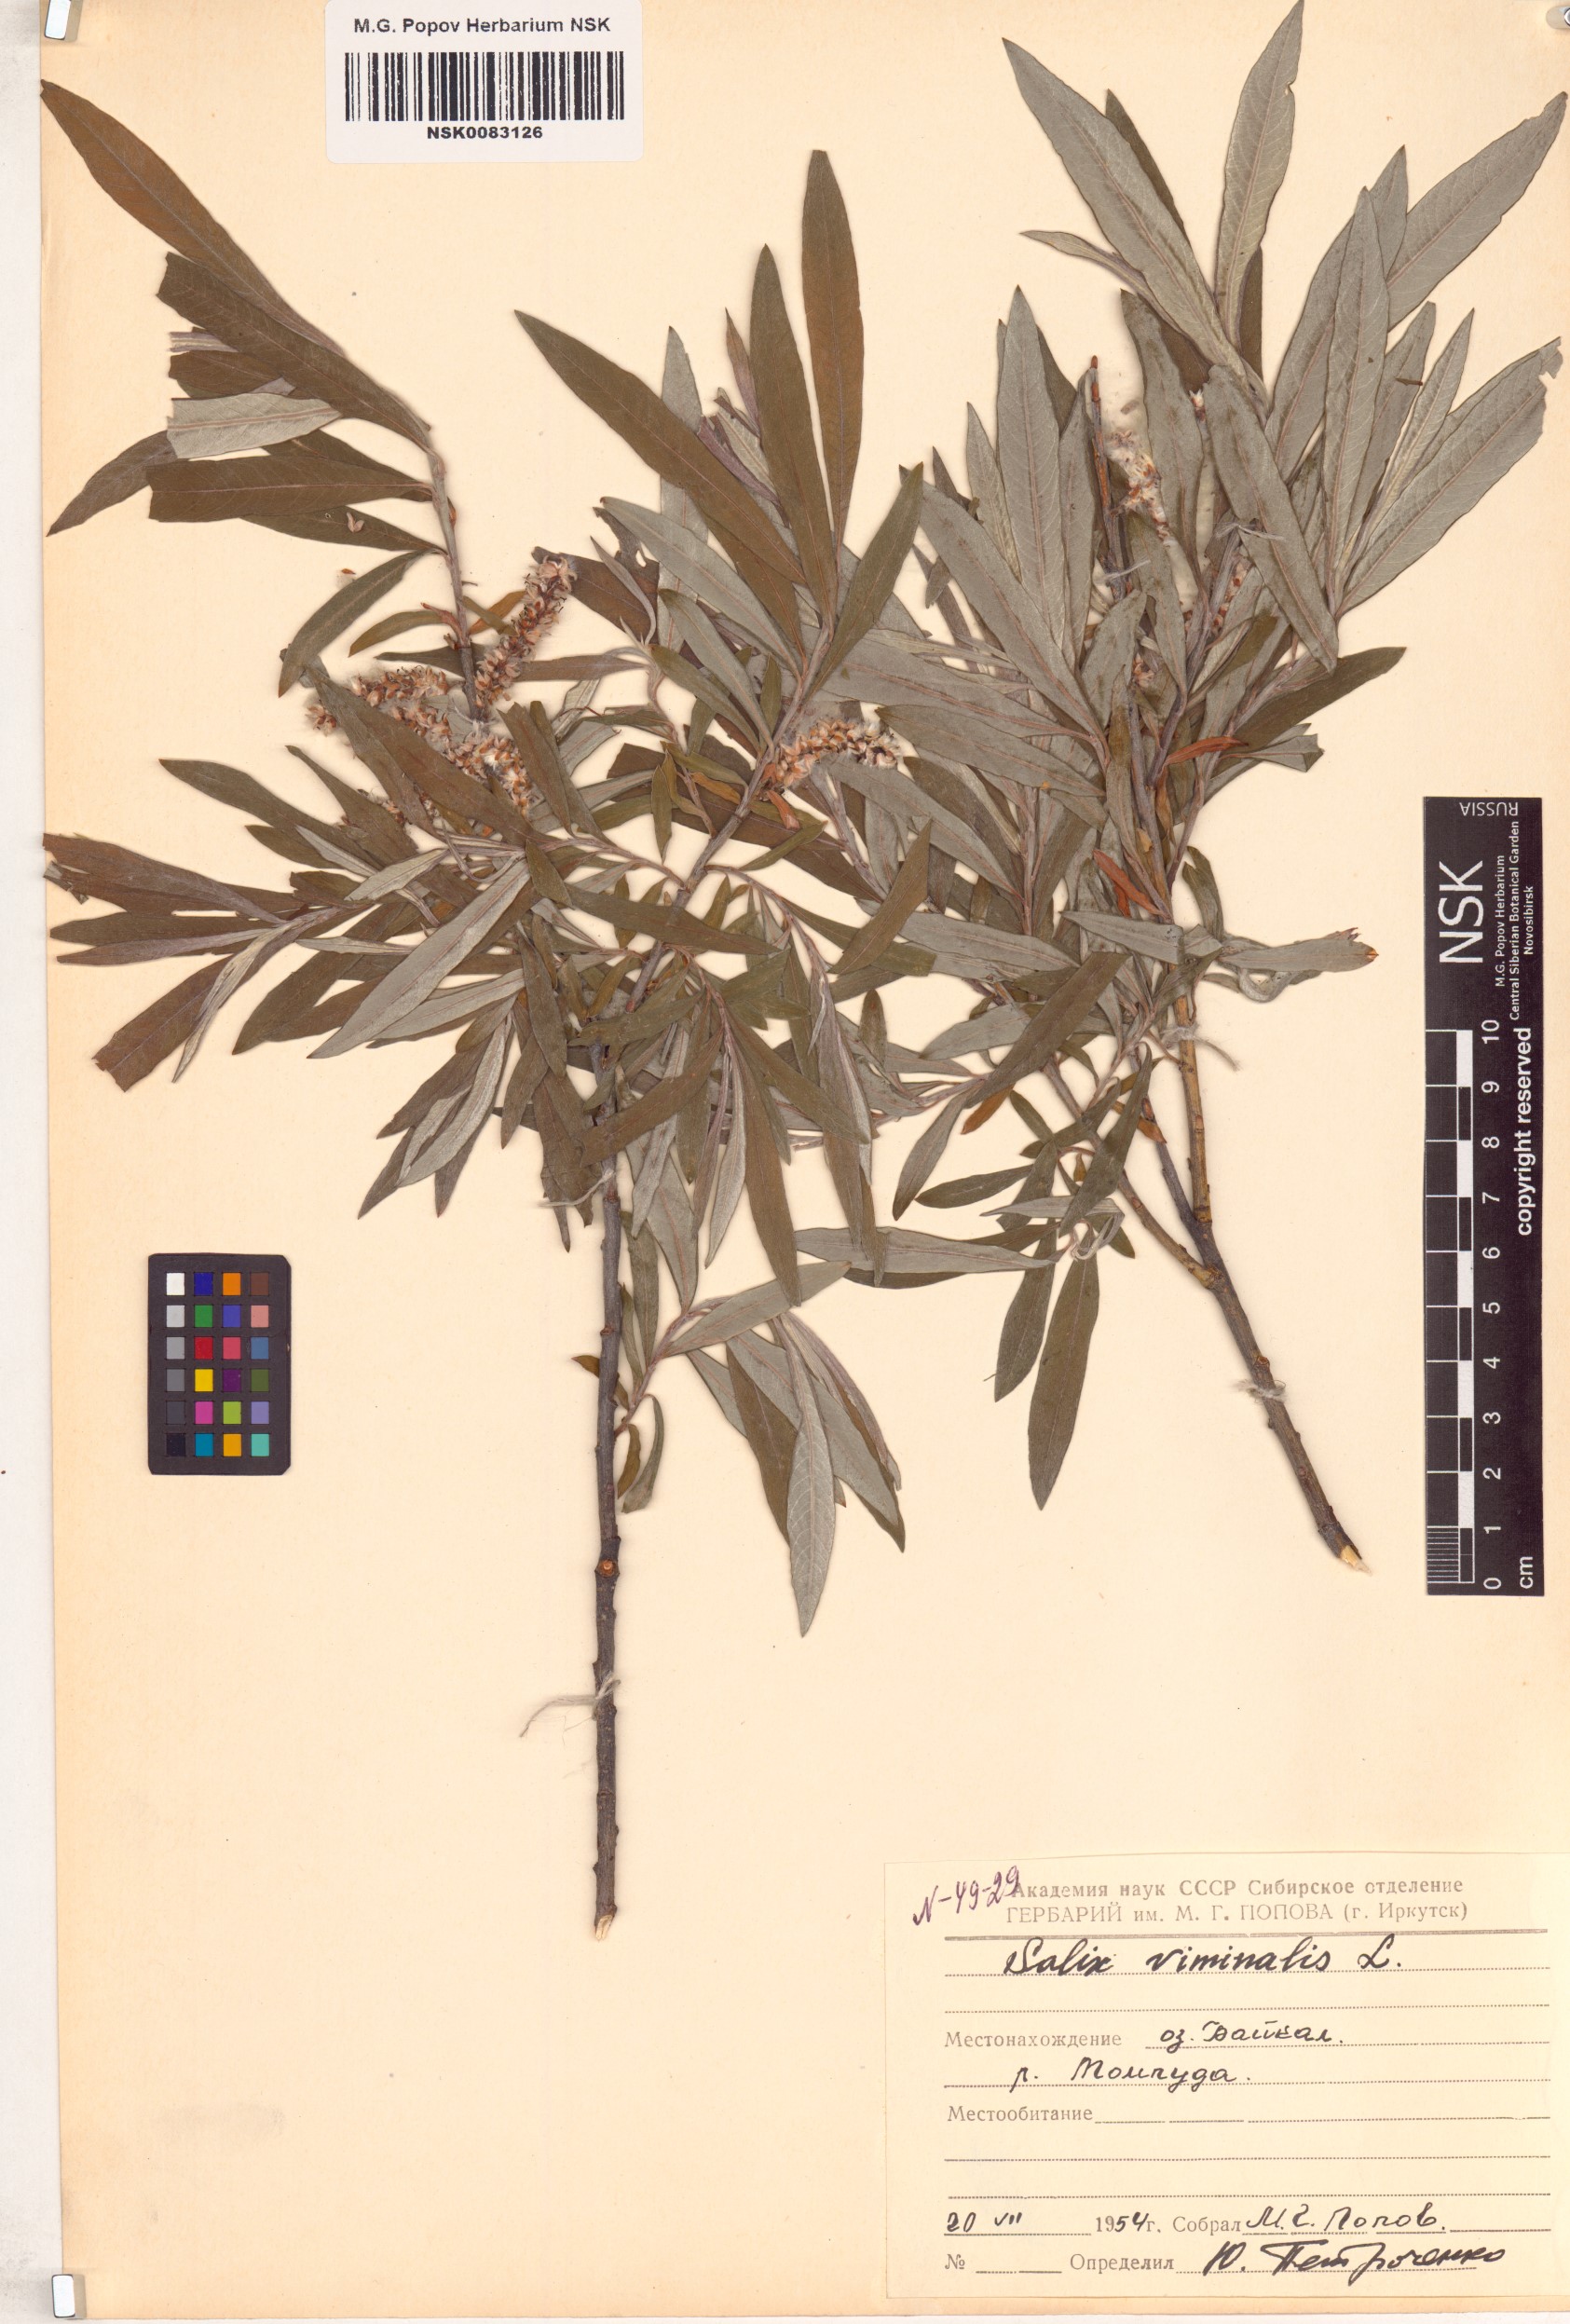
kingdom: Plantae
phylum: Tracheophyta
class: Magnoliopsida
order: Malpighiales
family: Salicaceae
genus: Salix
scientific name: Salix viminalis
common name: Osier
